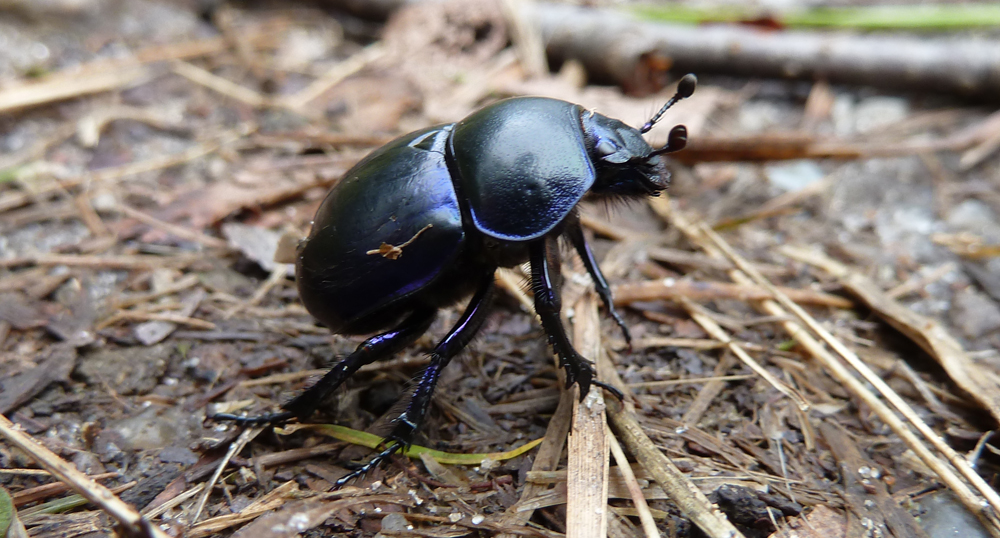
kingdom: Animalia
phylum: Arthropoda
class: Insecta
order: Coleoptera
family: Geotrupidae
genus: Trypocopris
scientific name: Trypocopris vernalis
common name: Spring dumbledor
